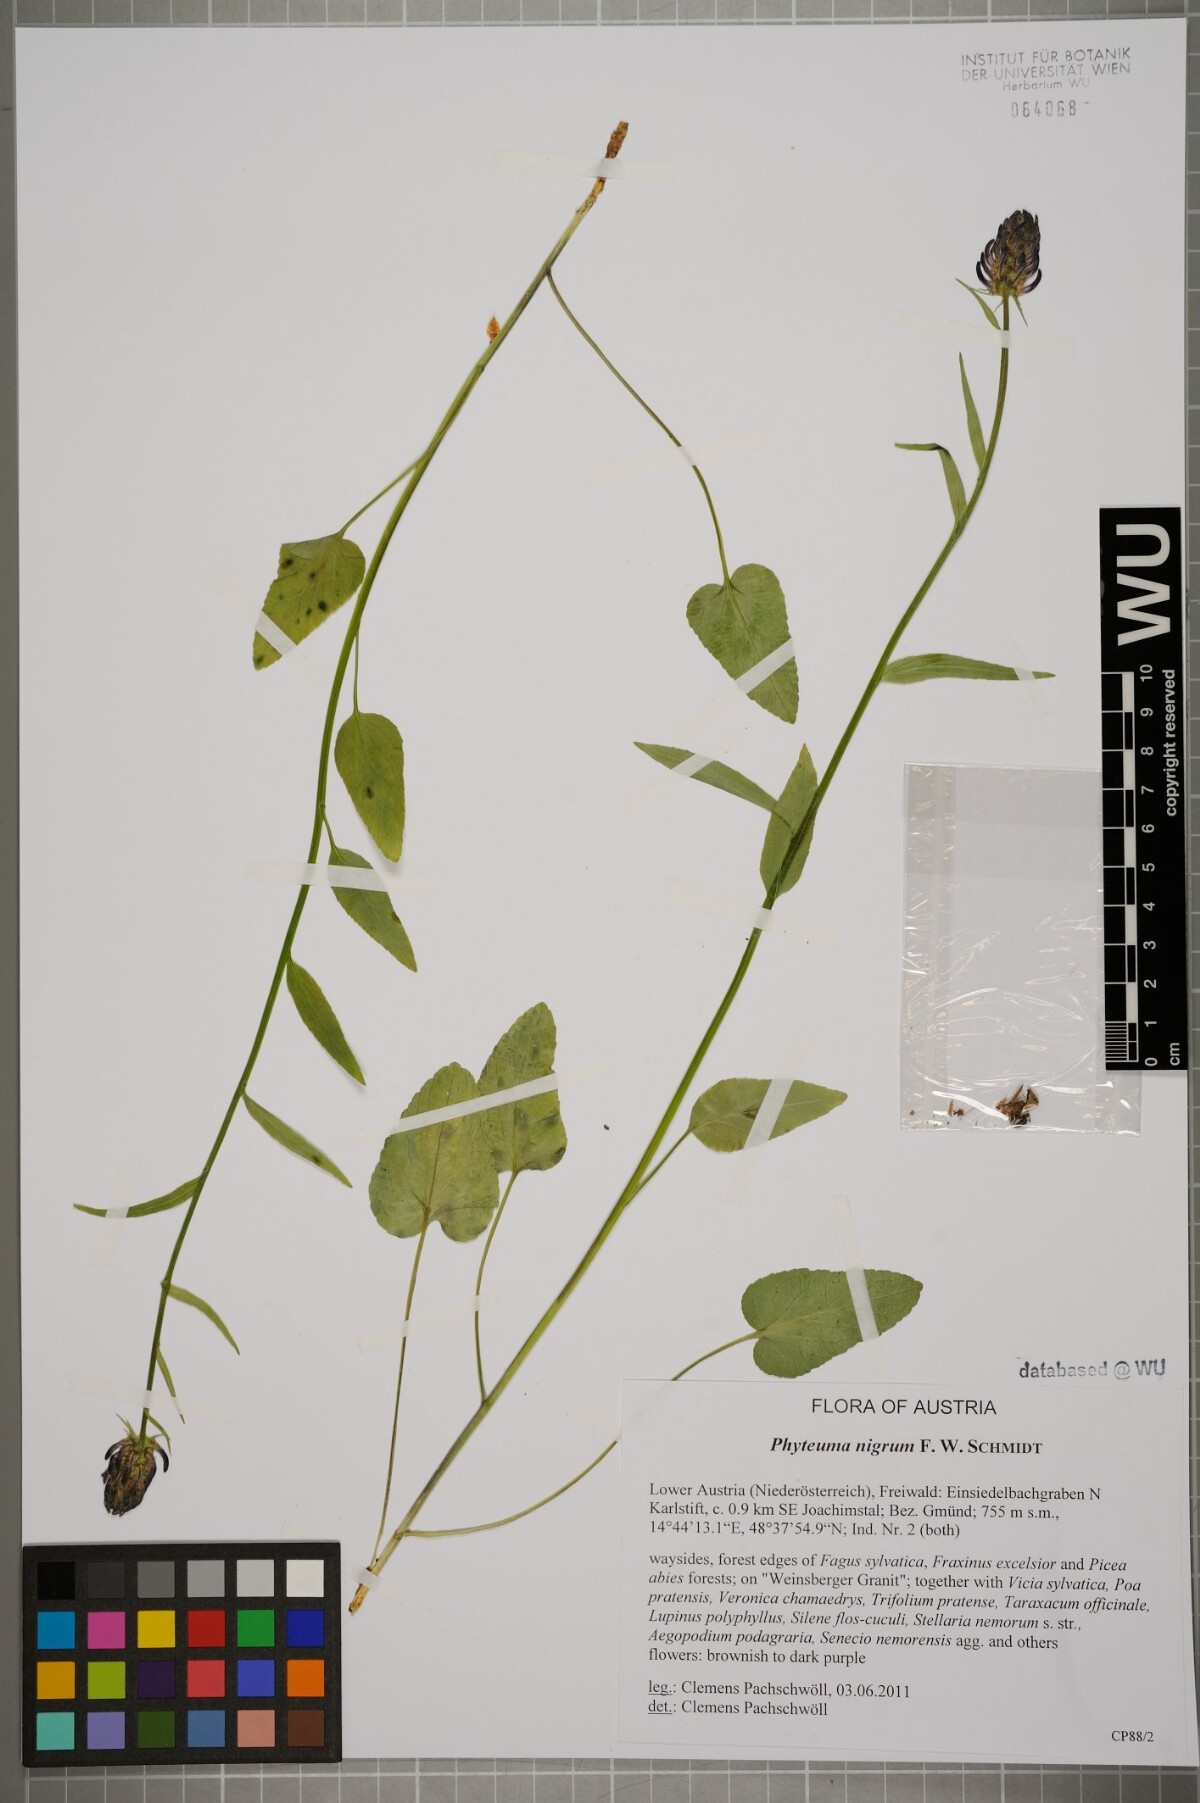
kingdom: Plantae
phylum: Tracheophyta
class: Magnoliopsida
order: Asterales
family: Campanulaceae
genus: Phyteuma
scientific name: Phyteuma nigrum
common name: Black rampion
